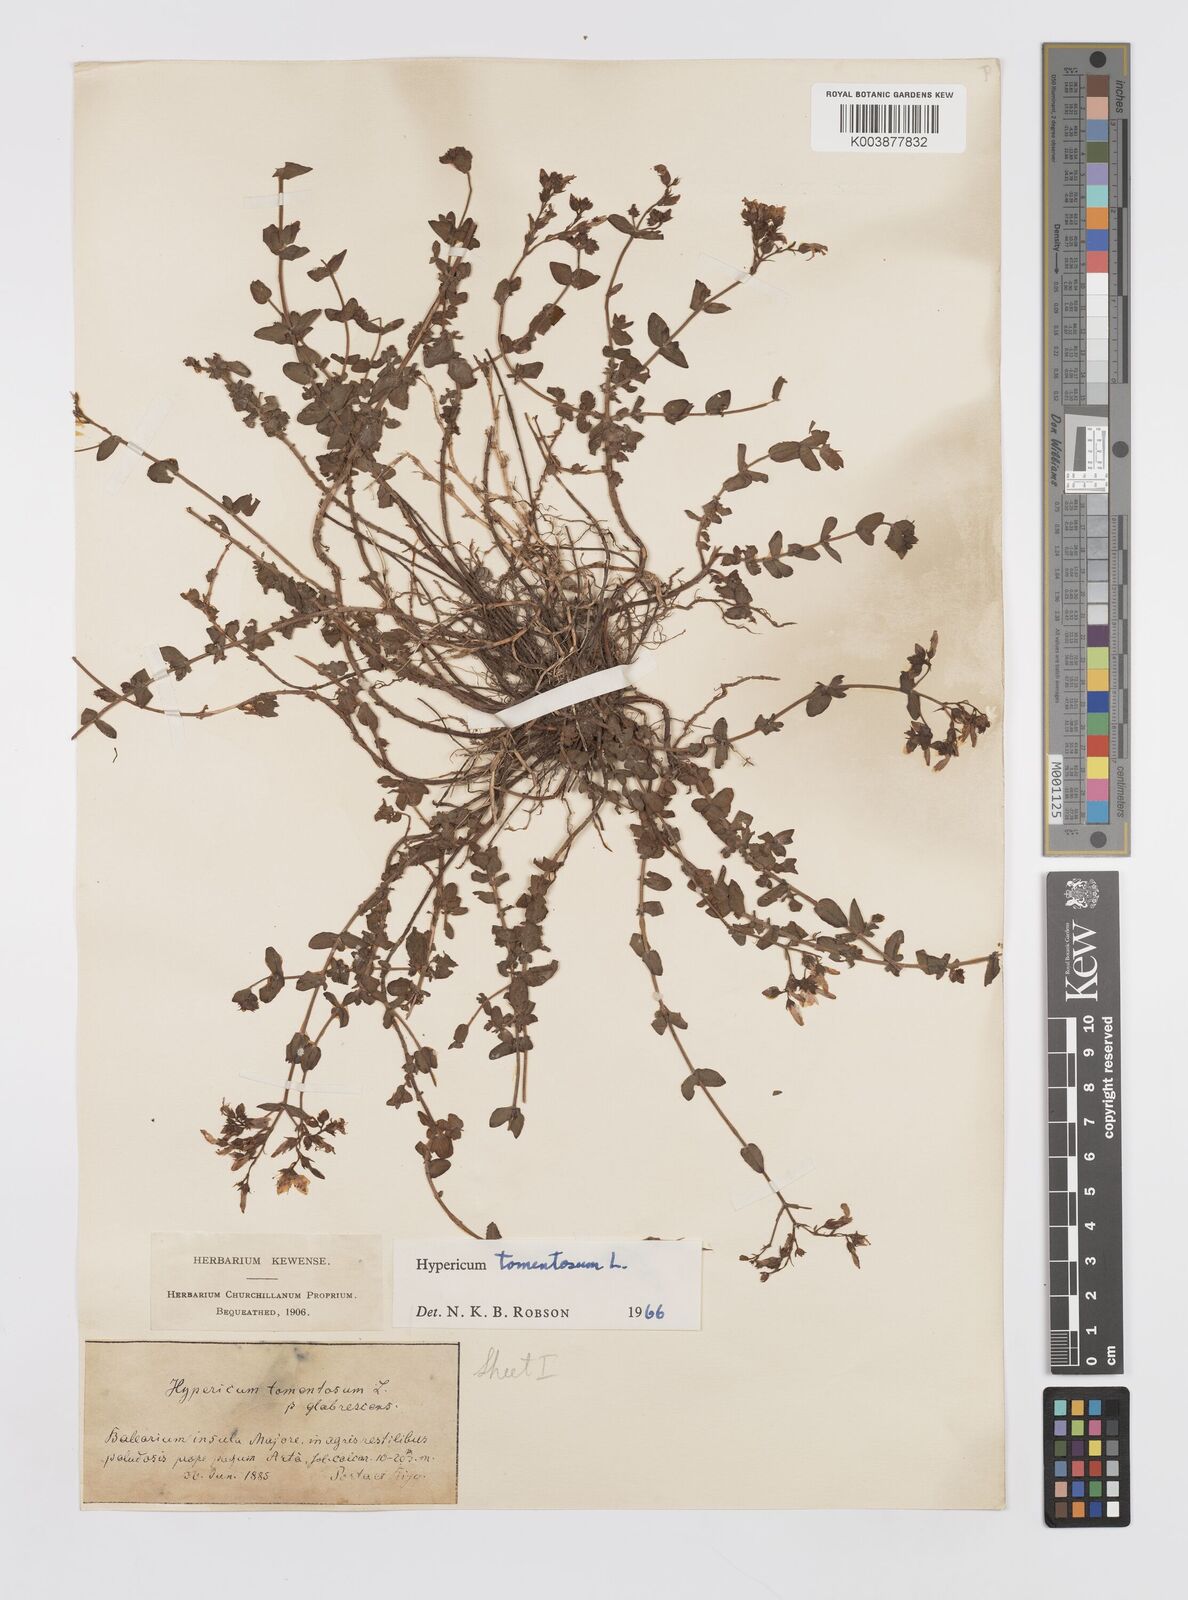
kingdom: Plantae
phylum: Tracheophyta
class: Magnoliopsida
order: Malpighiales
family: Hypericaceae
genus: Hypericum
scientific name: Hypericum tomentosum
